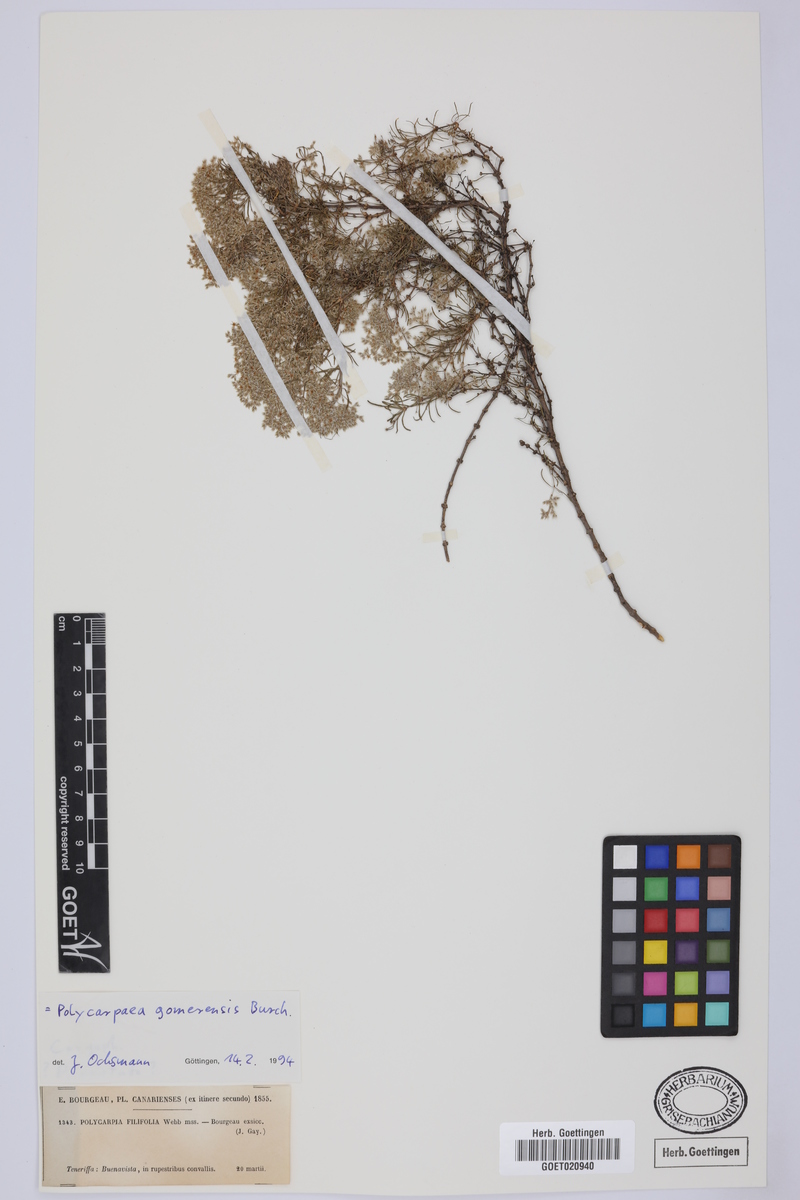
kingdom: Plantae
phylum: Tracheophyta
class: Magnoliopsida
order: Caryophyllales
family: Caryophyllaceae
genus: Polycarpaea
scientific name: Polycarpaea filifolia
